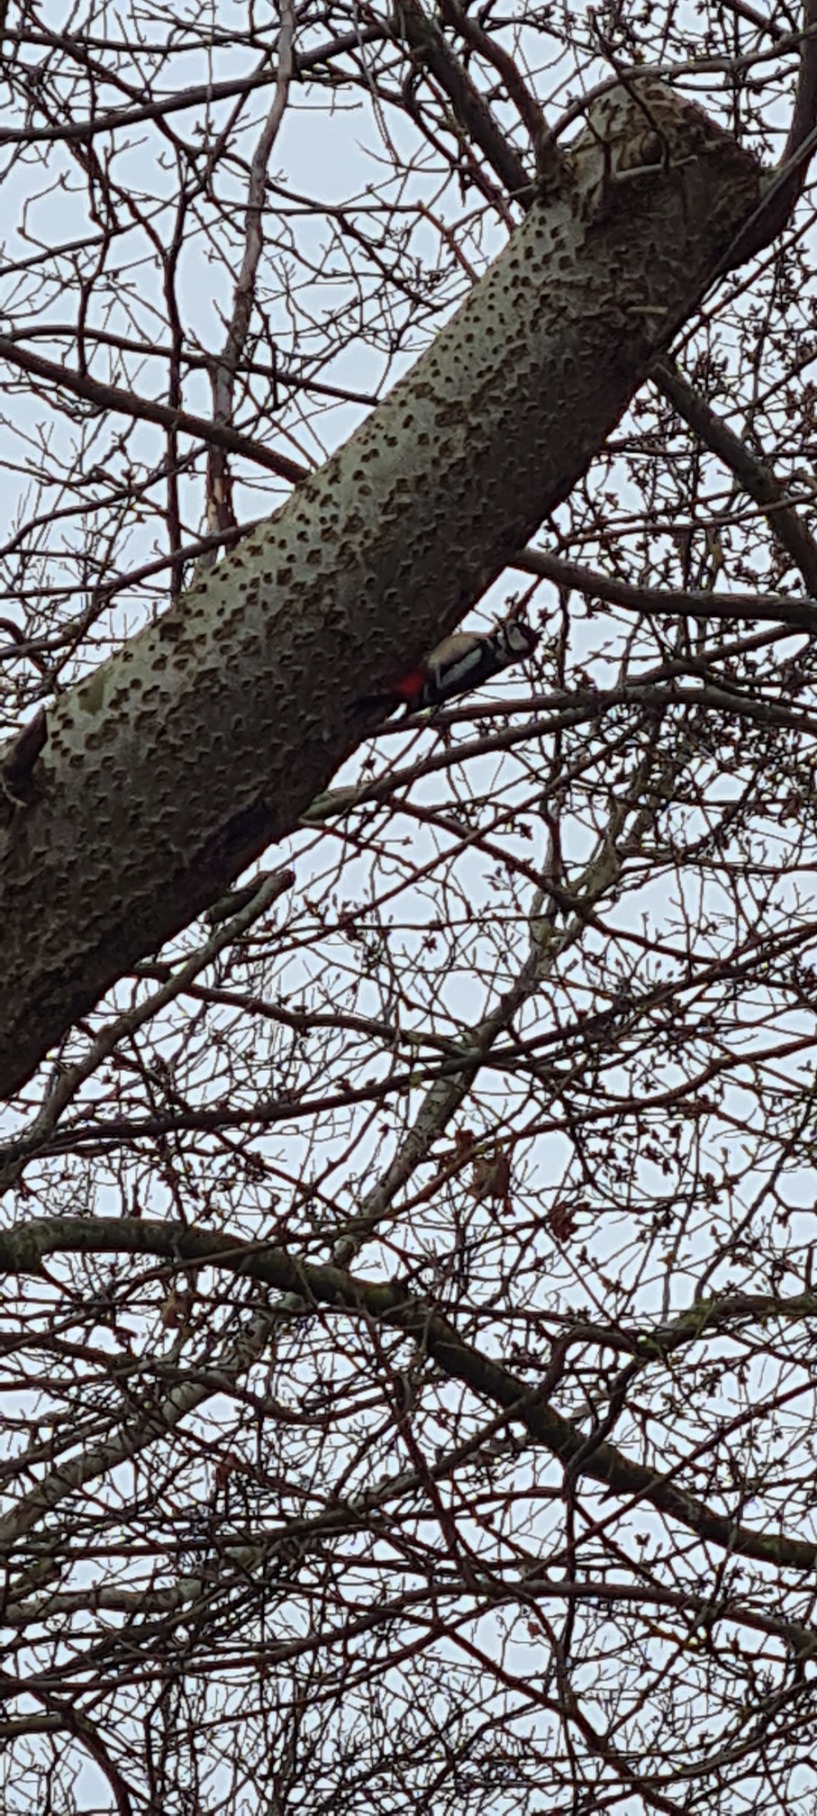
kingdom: Animalia
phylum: Chordata
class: Aves
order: Piciformes
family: Picidae
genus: Dendrocopos
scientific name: Dendrocopos major
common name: Stor flagspætte
